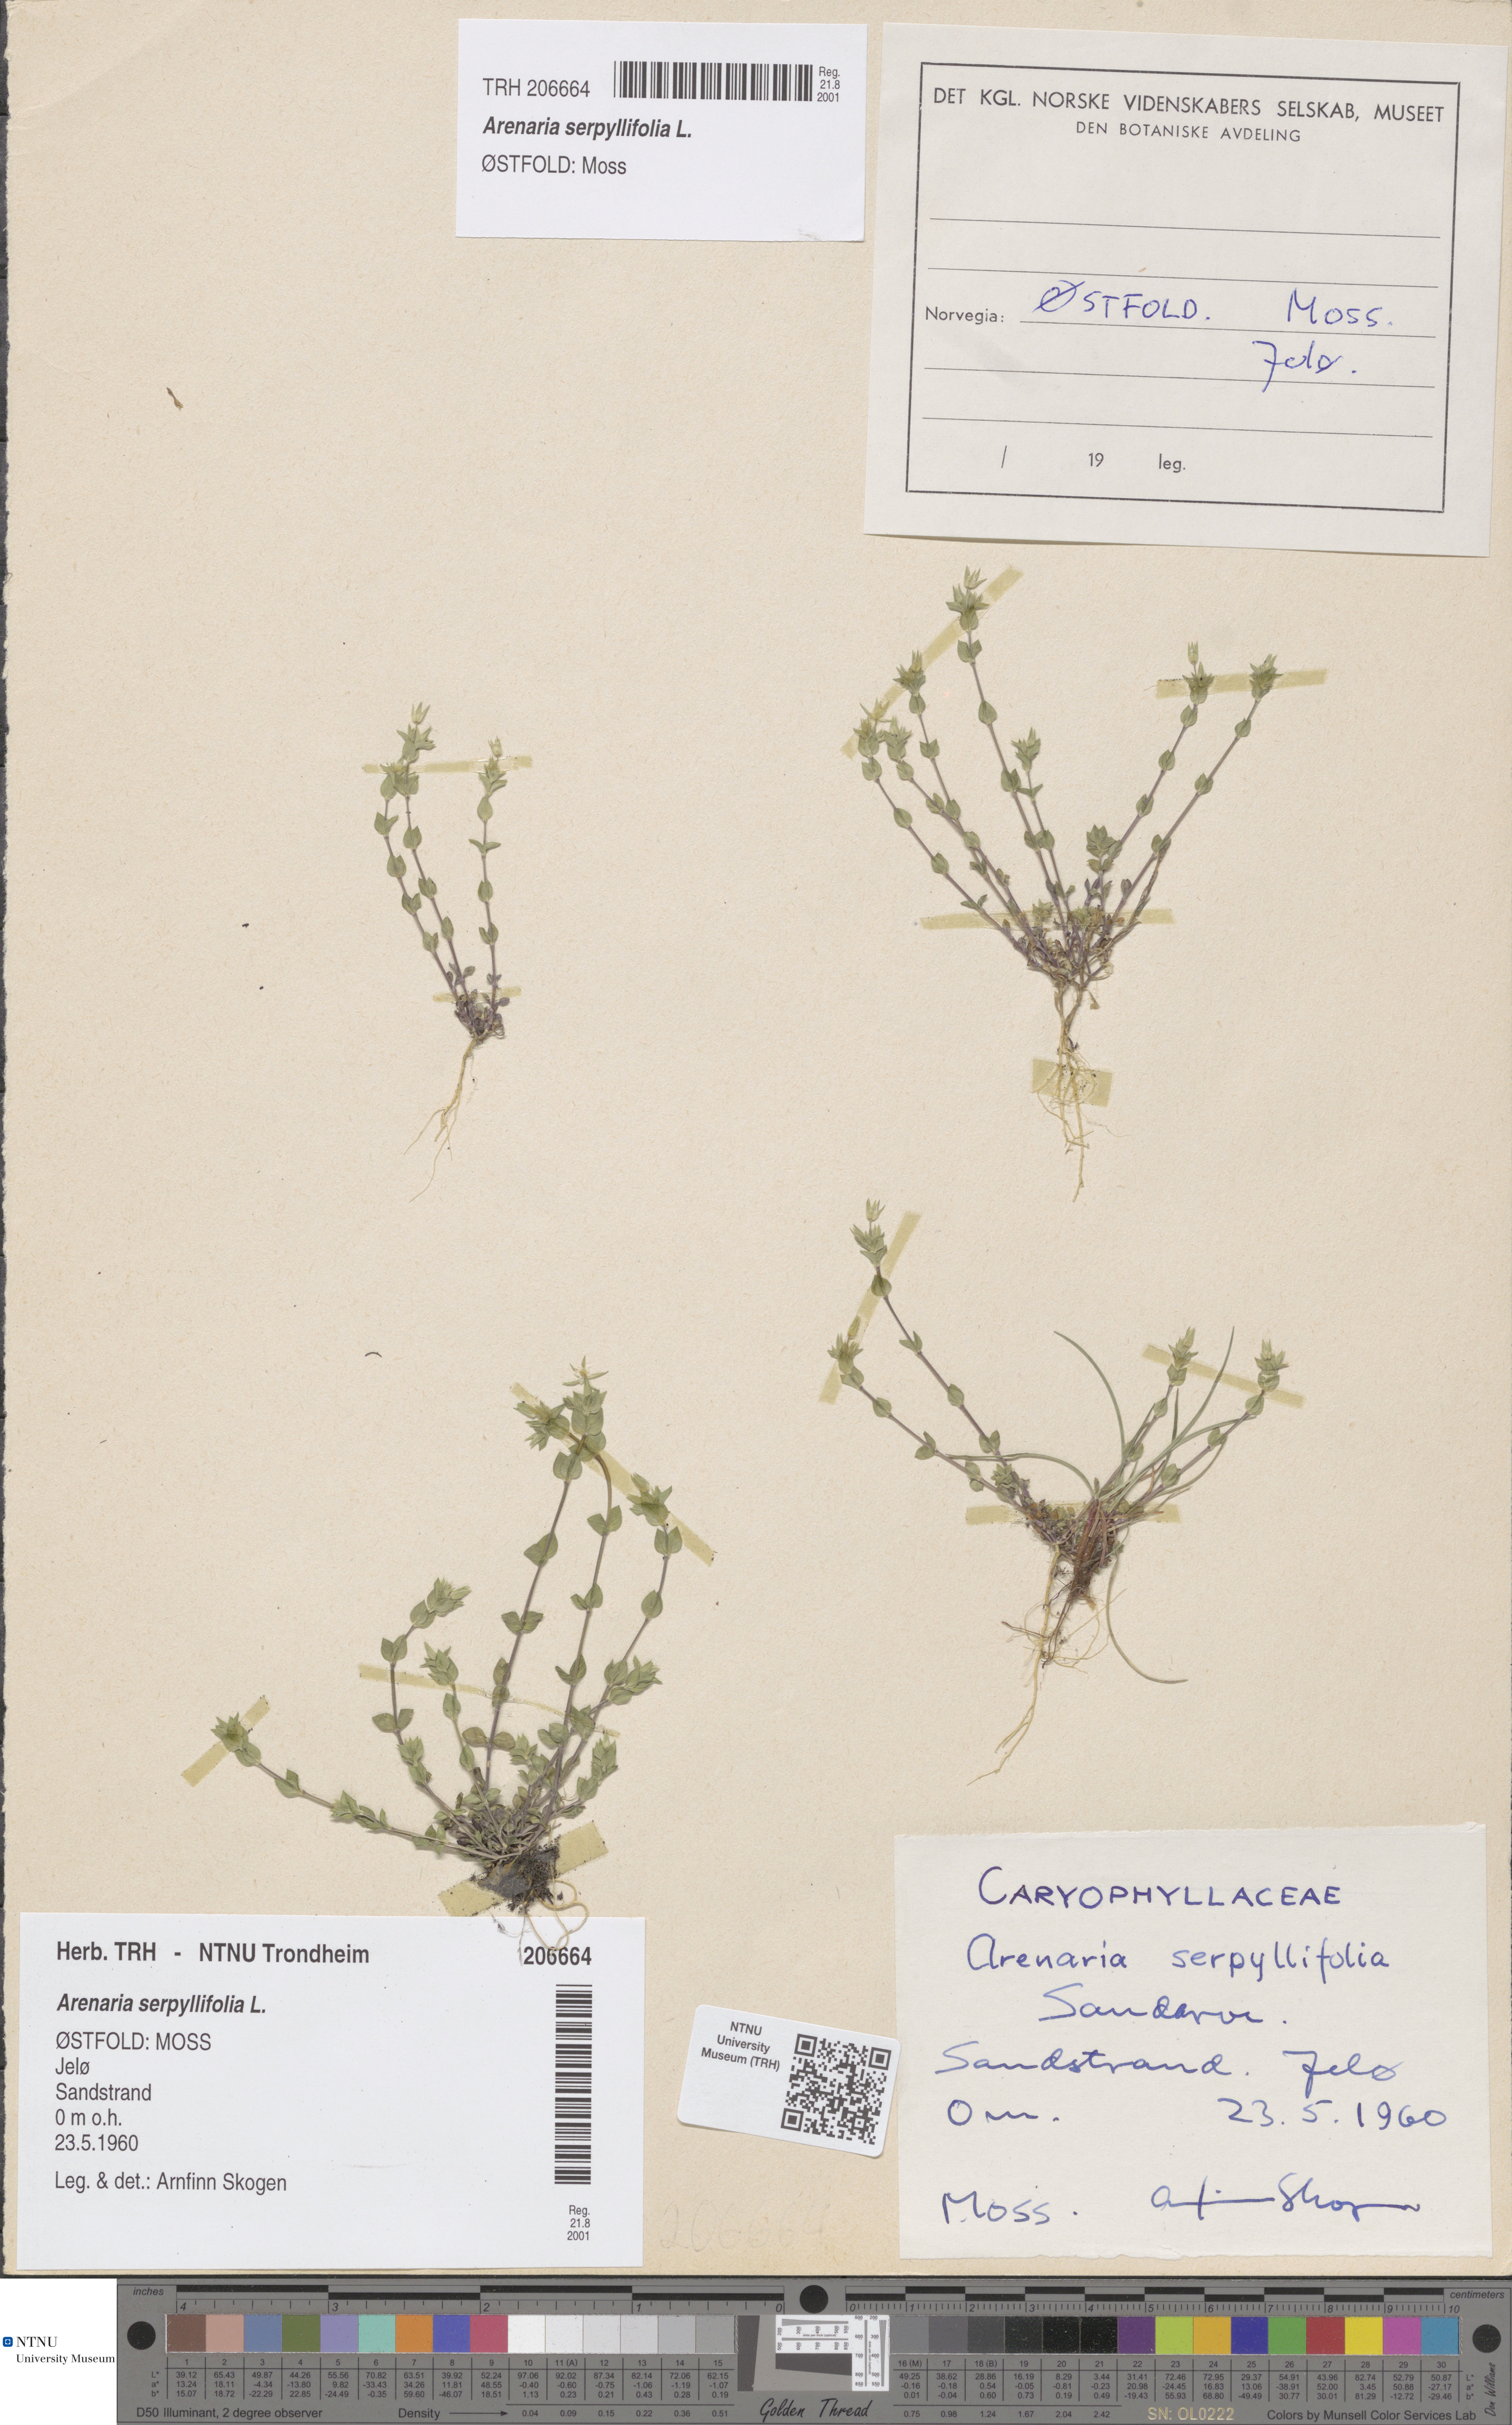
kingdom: Plantae
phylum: Tracheophyta
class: Magnoliopsida
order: Caryophyllales
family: Caryophyllaceae
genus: Arenaria
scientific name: Arenaria serpyllifolia
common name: Thyme-leaved sandwort
